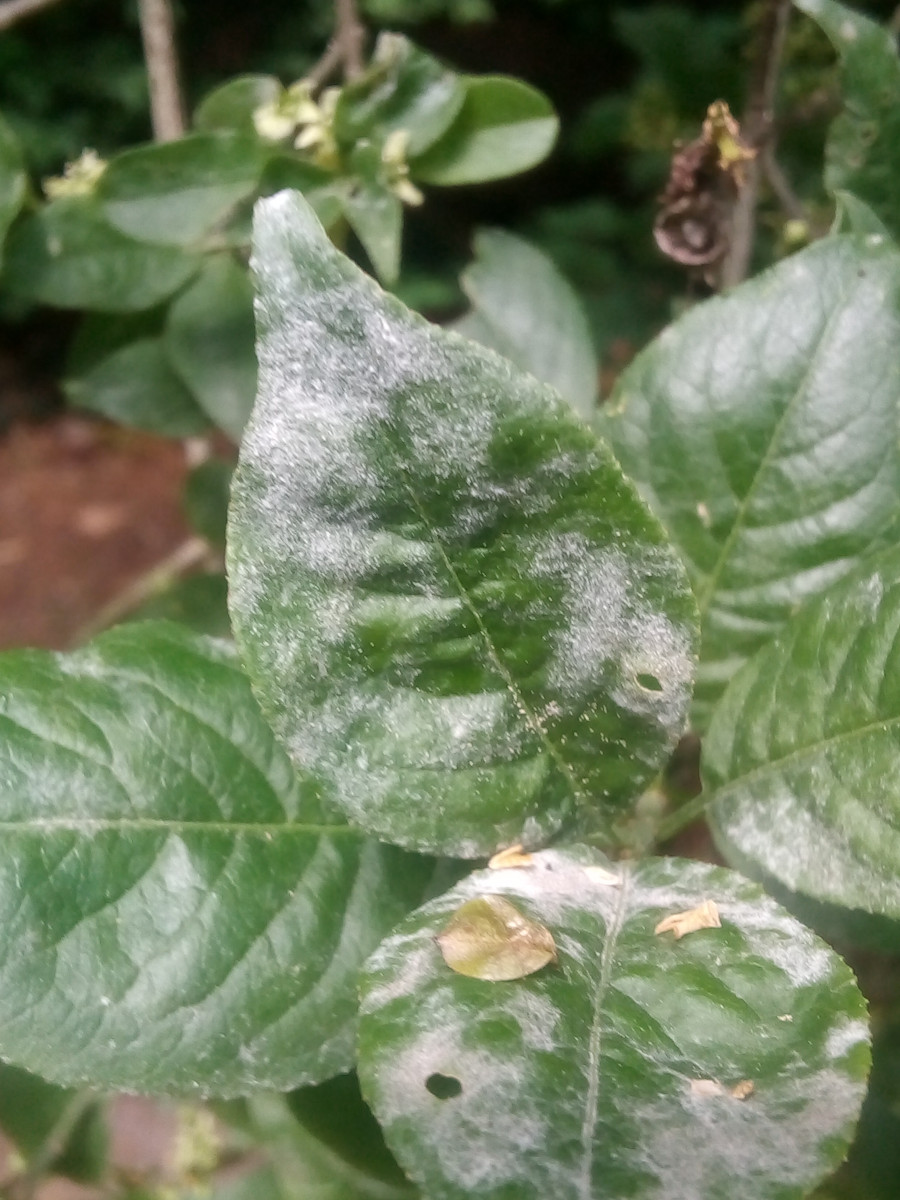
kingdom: Fungi
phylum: Ascomycota
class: Leotiomycetes
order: Helotiales
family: Erysiphaceae
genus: Erysiphe
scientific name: Erysiphe euonymi
